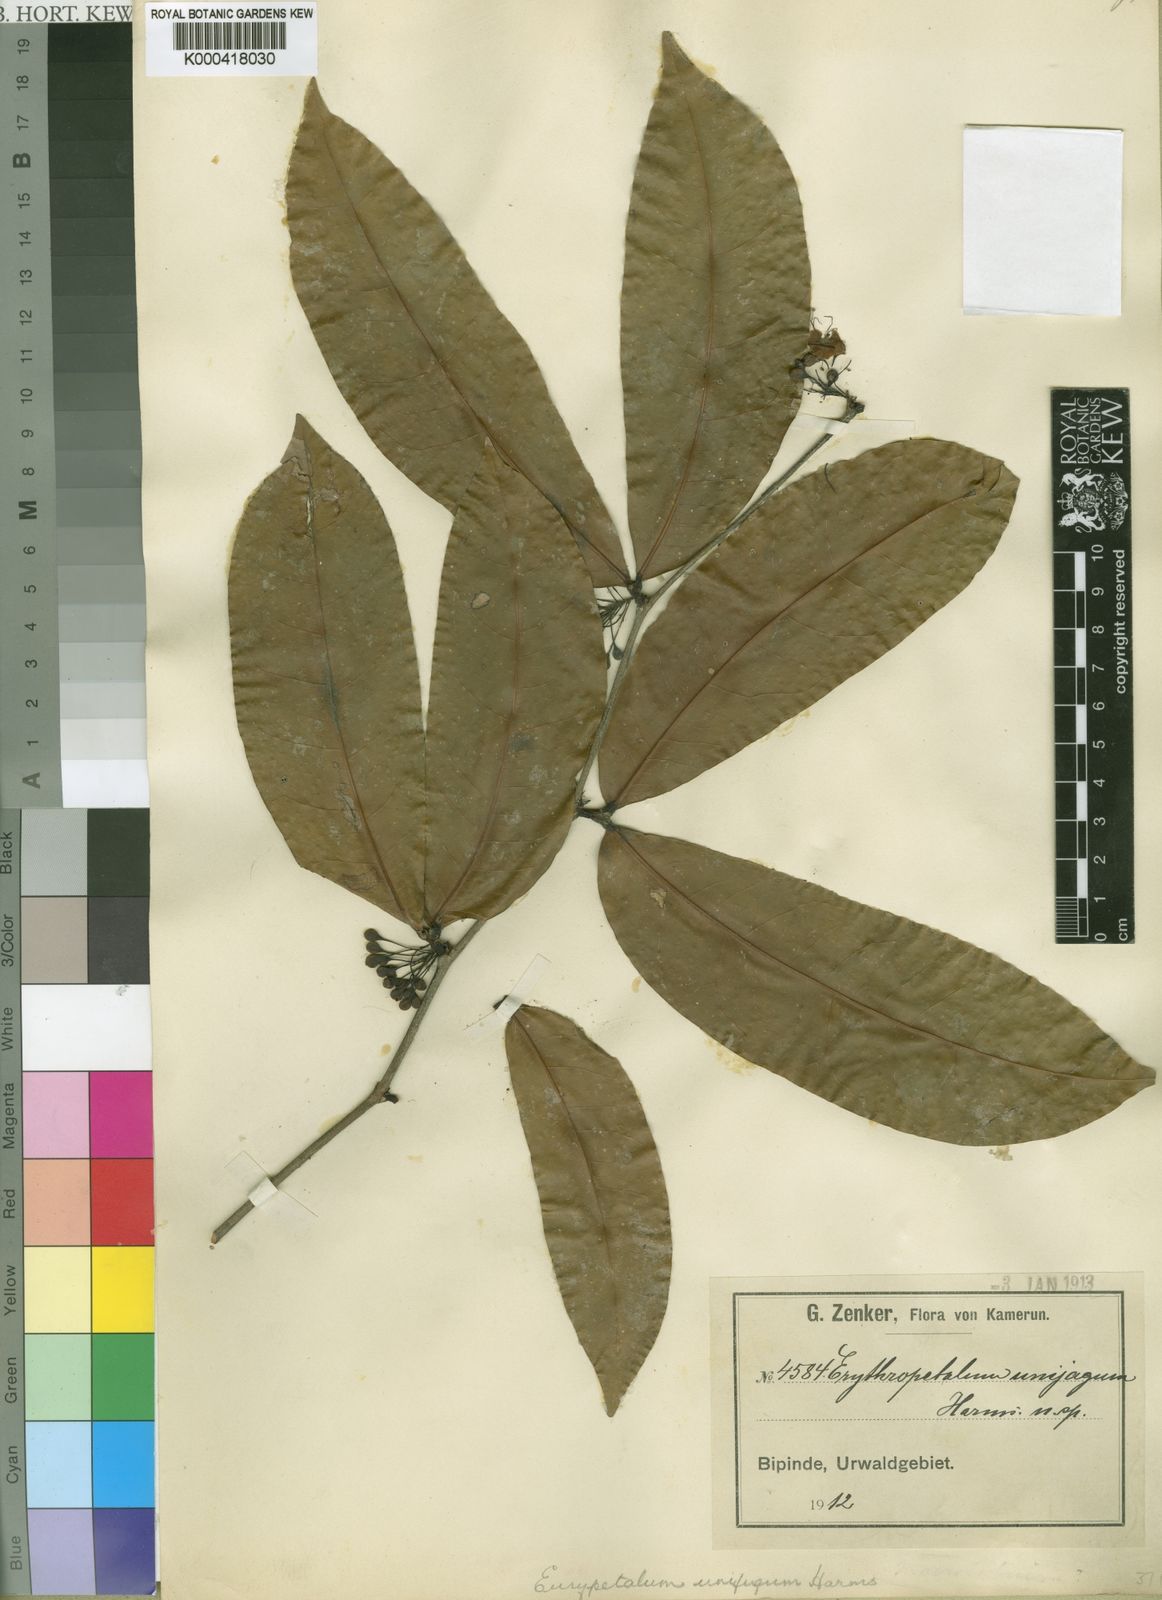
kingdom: Plantae
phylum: Tracheophyta
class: Magnoliopsida
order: Fabales
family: Fabaceae
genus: Eurypetalum
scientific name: Eurypetalum unijugum
